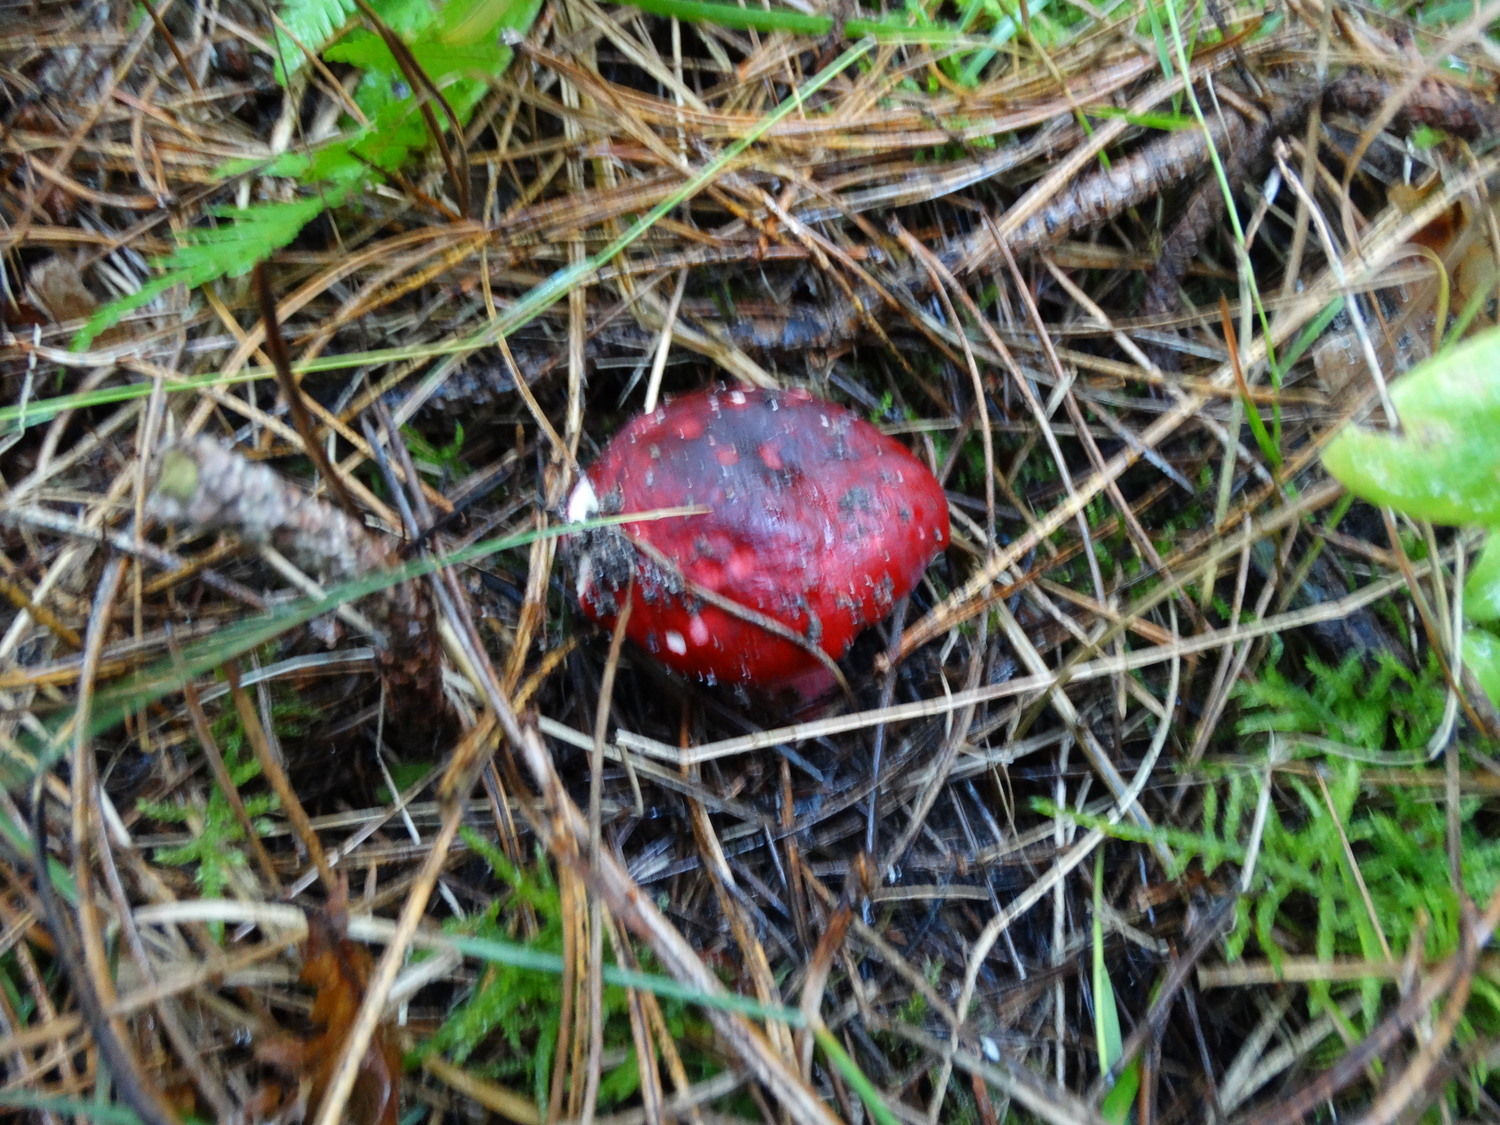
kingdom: Fungi
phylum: Basidiomycota
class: Agaricomycetes
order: Russulales
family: Russulaceae
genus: Russula
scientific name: Russula xerampelina
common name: hummer-skørhat
